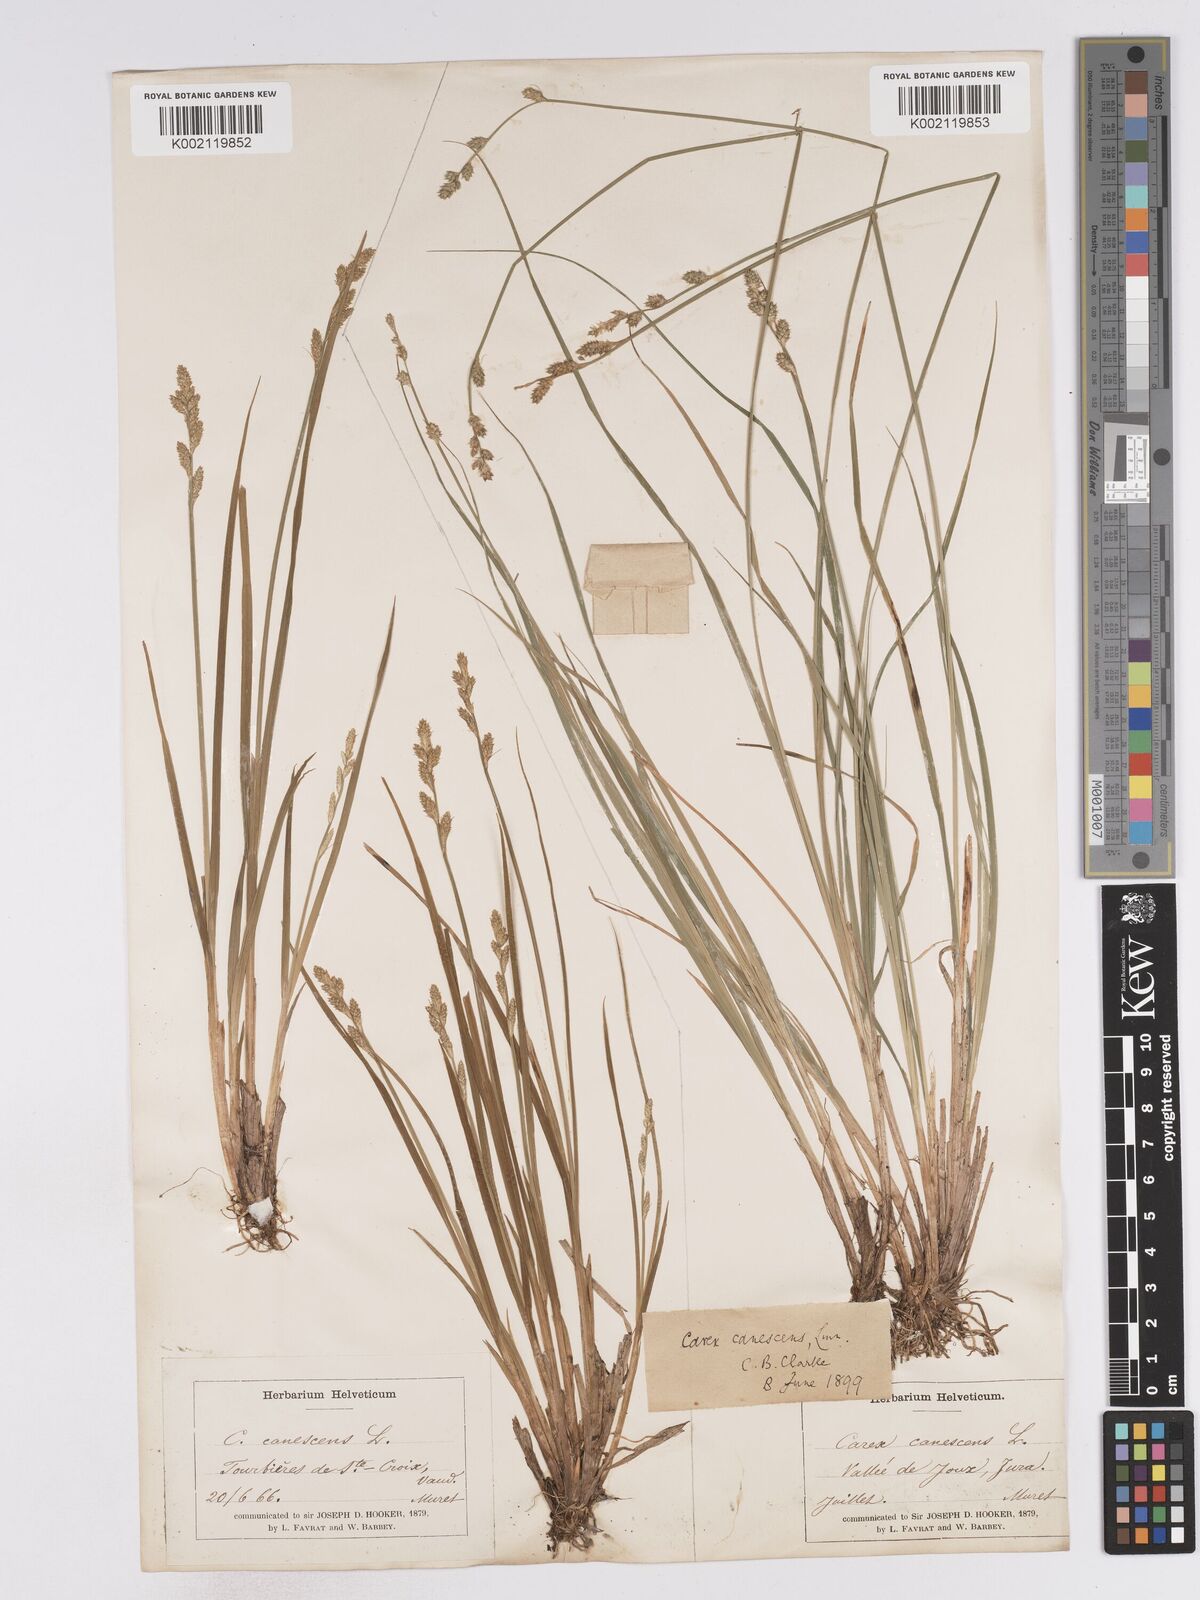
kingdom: Plantae
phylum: Tracheophyta
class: Liliopsida
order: Poales
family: Cyperaceae
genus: Carex
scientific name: Carex curta
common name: White sedge
